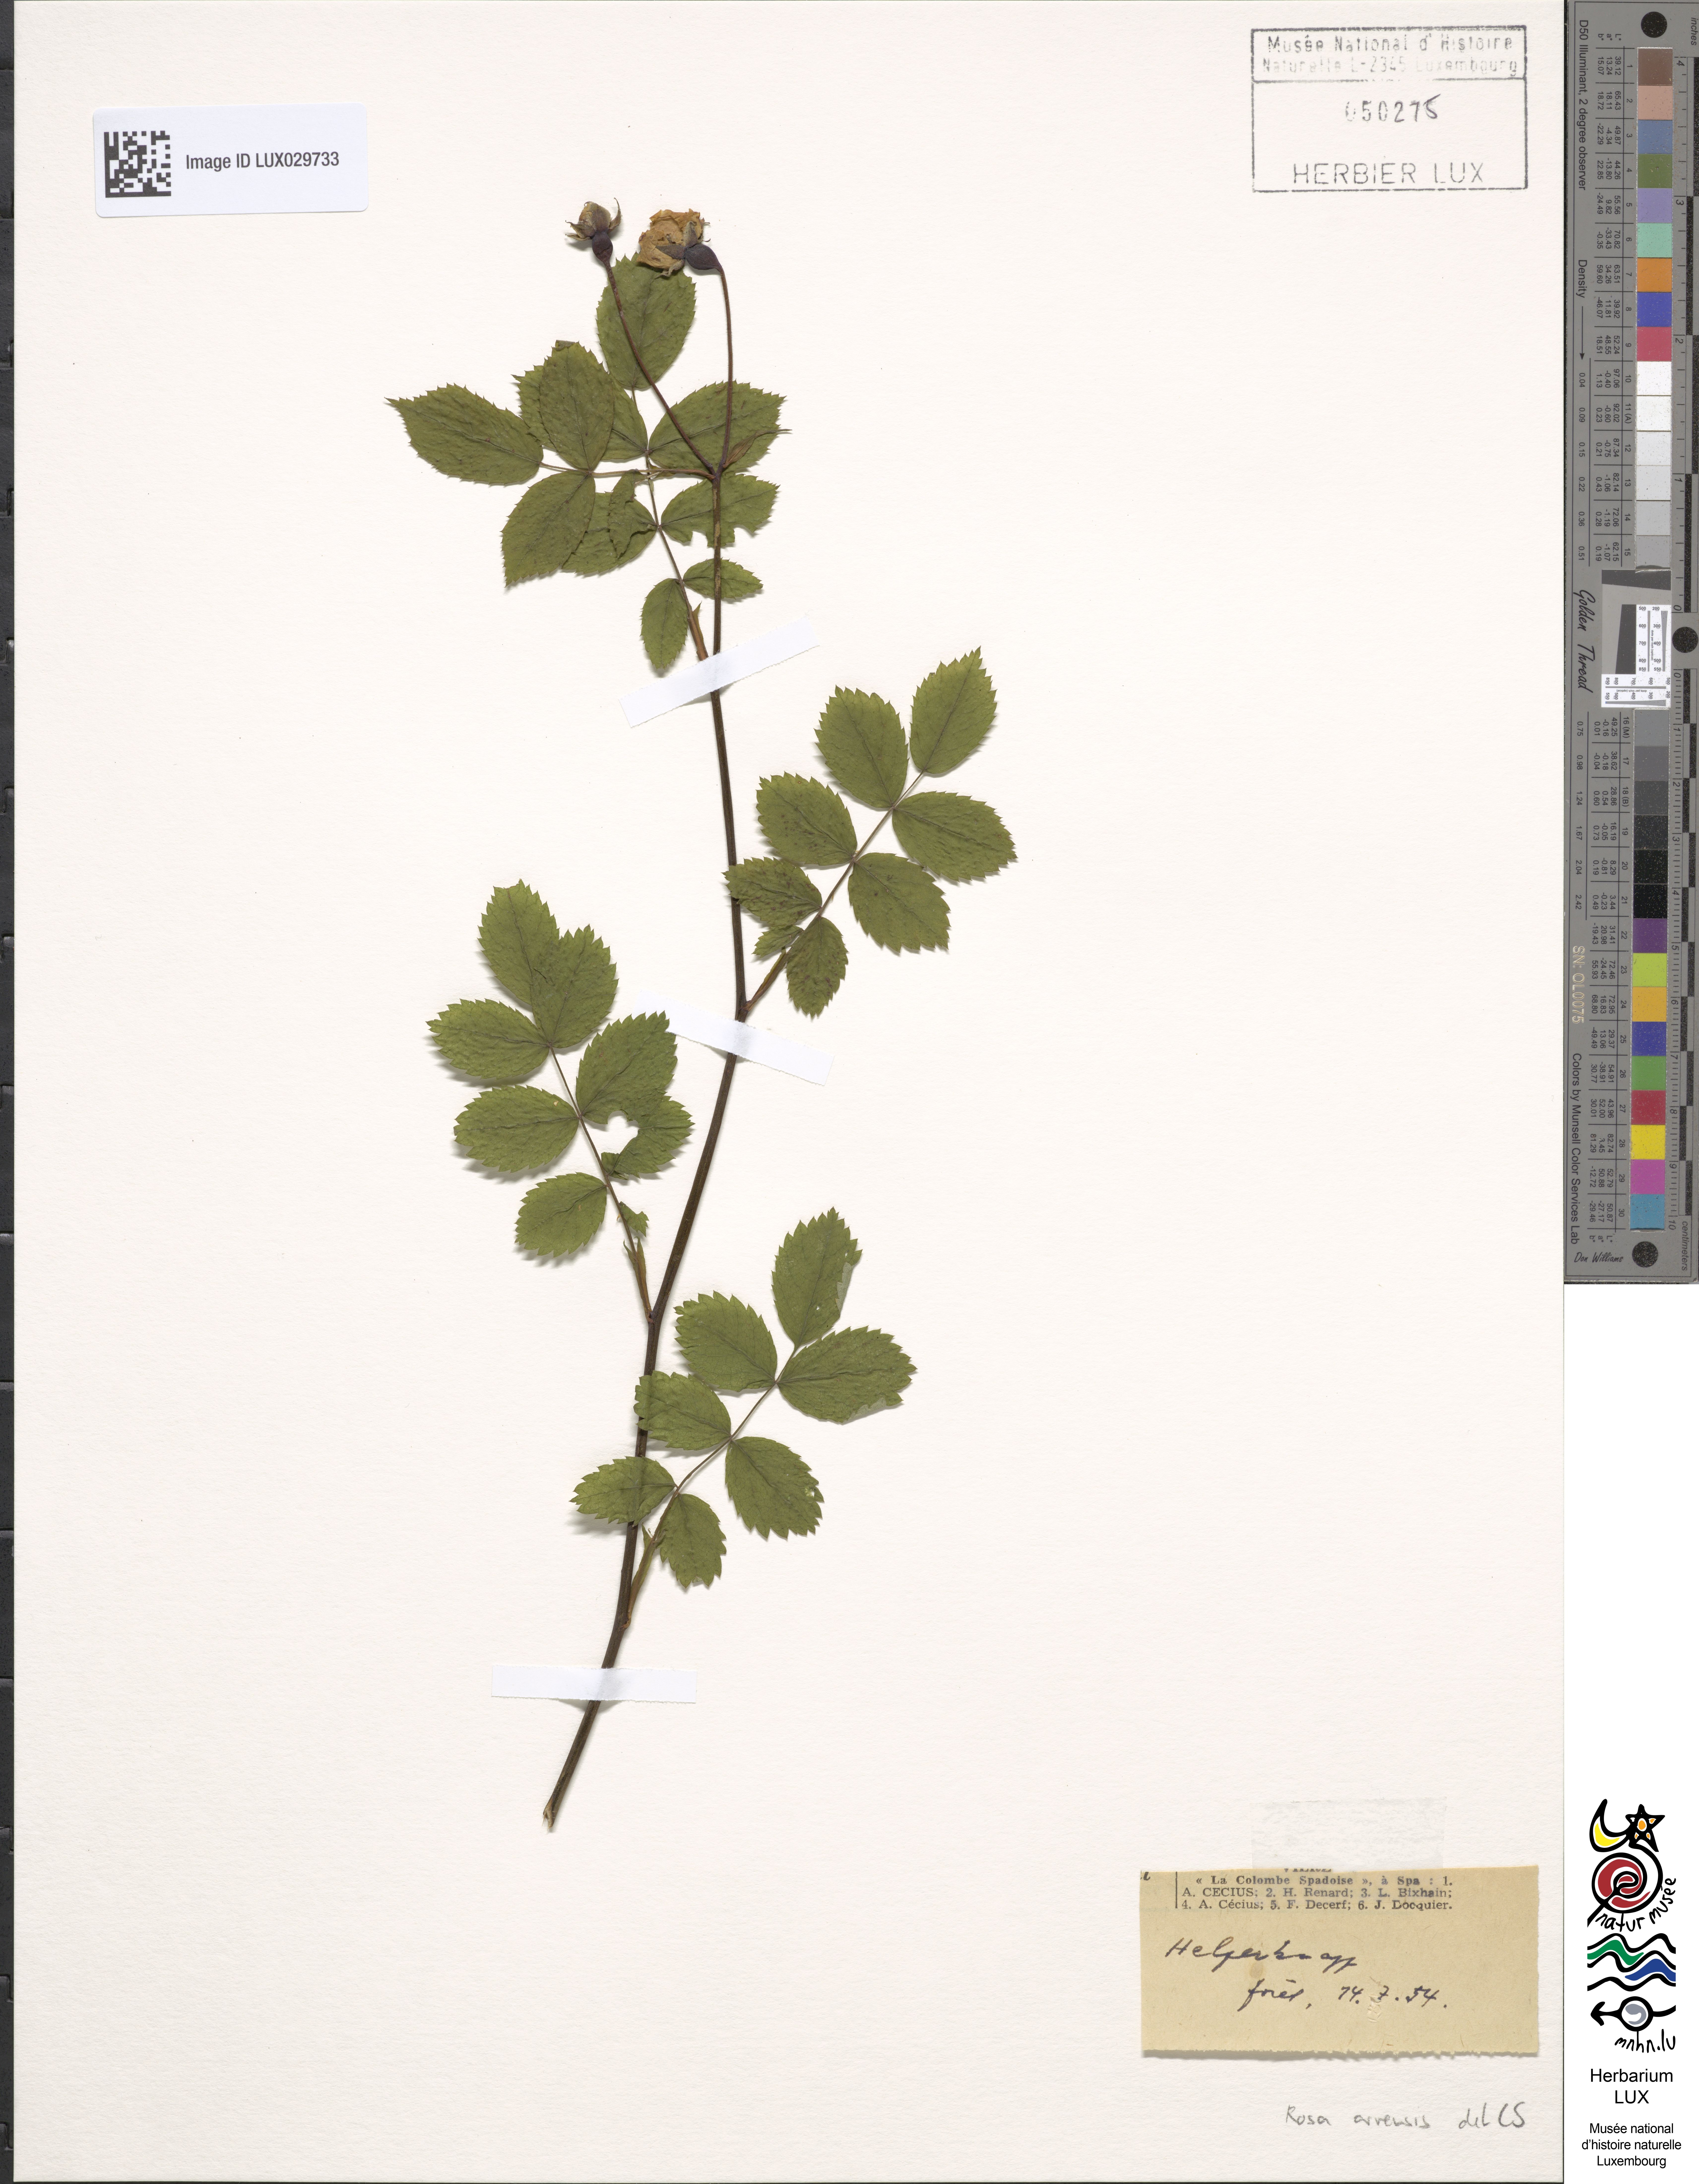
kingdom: Plantae
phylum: Tracheophyta
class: Magnoliopsida
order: Rosales
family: Rosaceae
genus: Rosa
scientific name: Rosa arvensis
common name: Field rose
